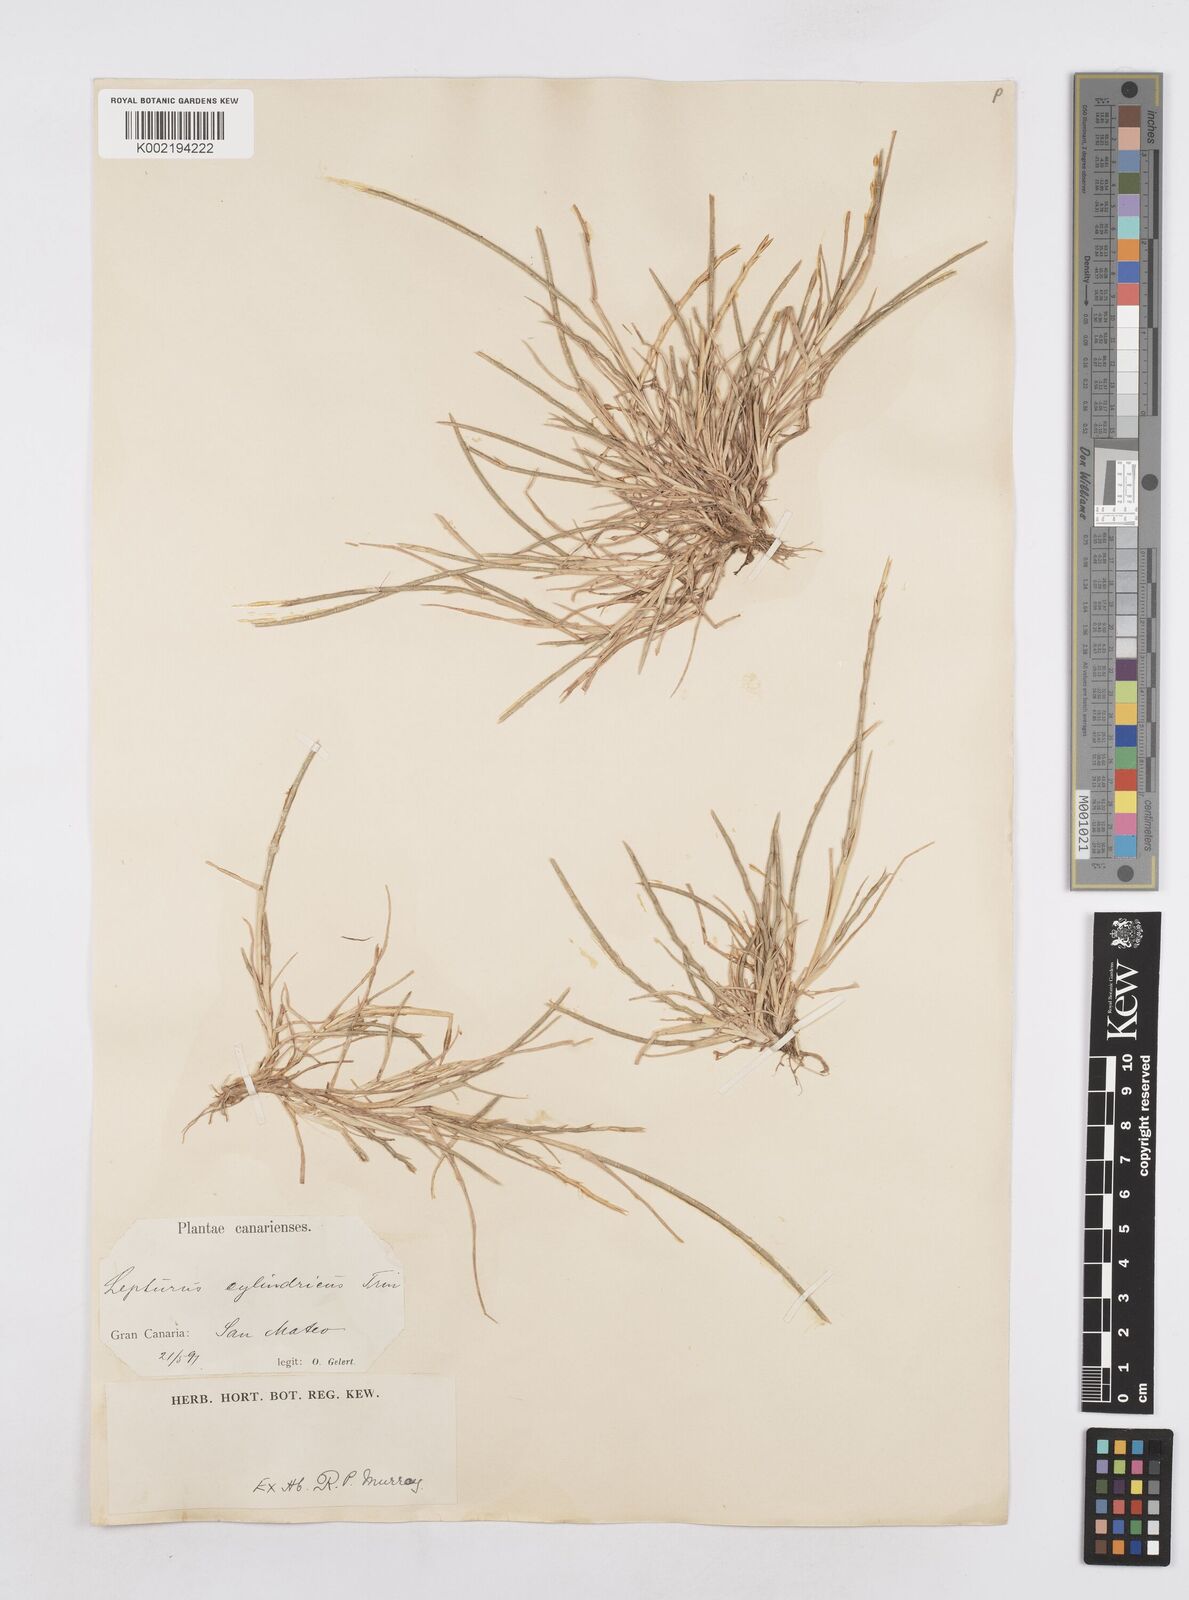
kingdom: Plantae
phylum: Tracheophyta
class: Liliopsida
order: Poales
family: Poaceae
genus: Parapholis
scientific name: Parapholis cylindrica
